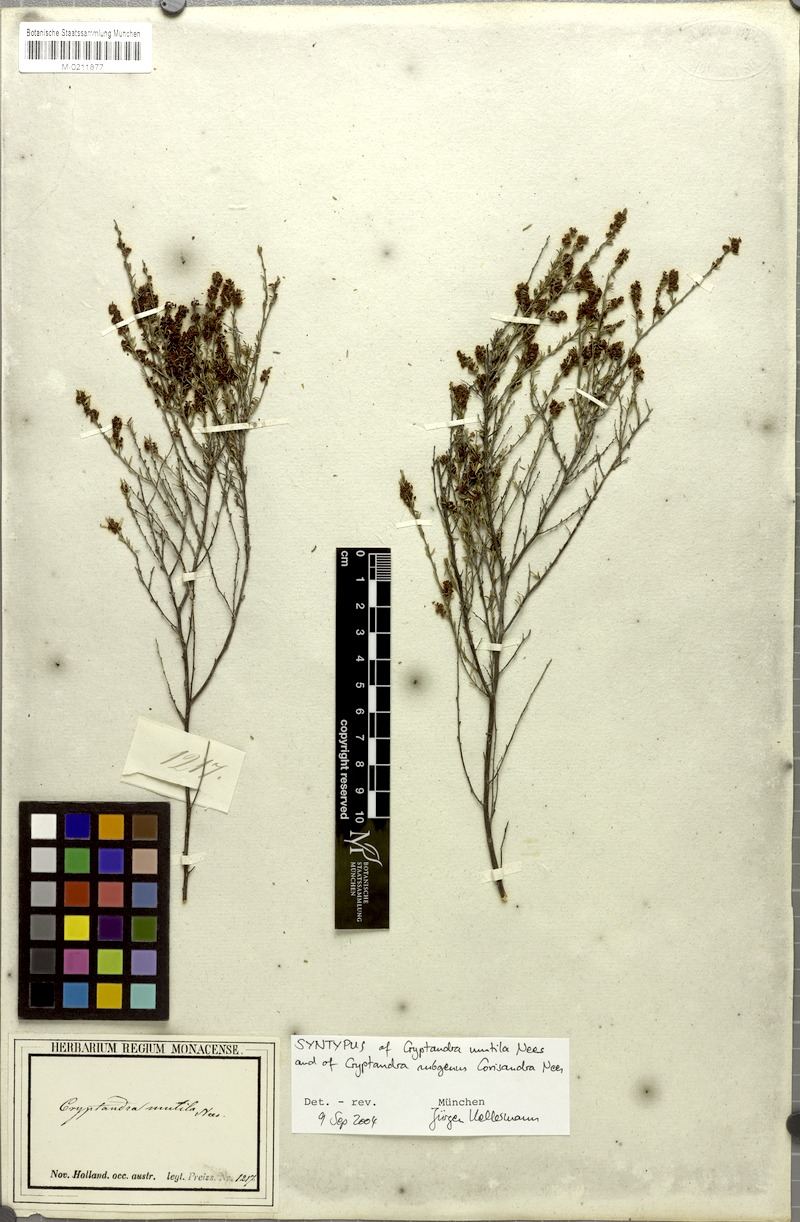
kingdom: Plantae
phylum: Tracheophyta
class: Magnoliopsida
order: Rosales
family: Rhamnaceae
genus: Cryptandra
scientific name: Cryptandra mutila
